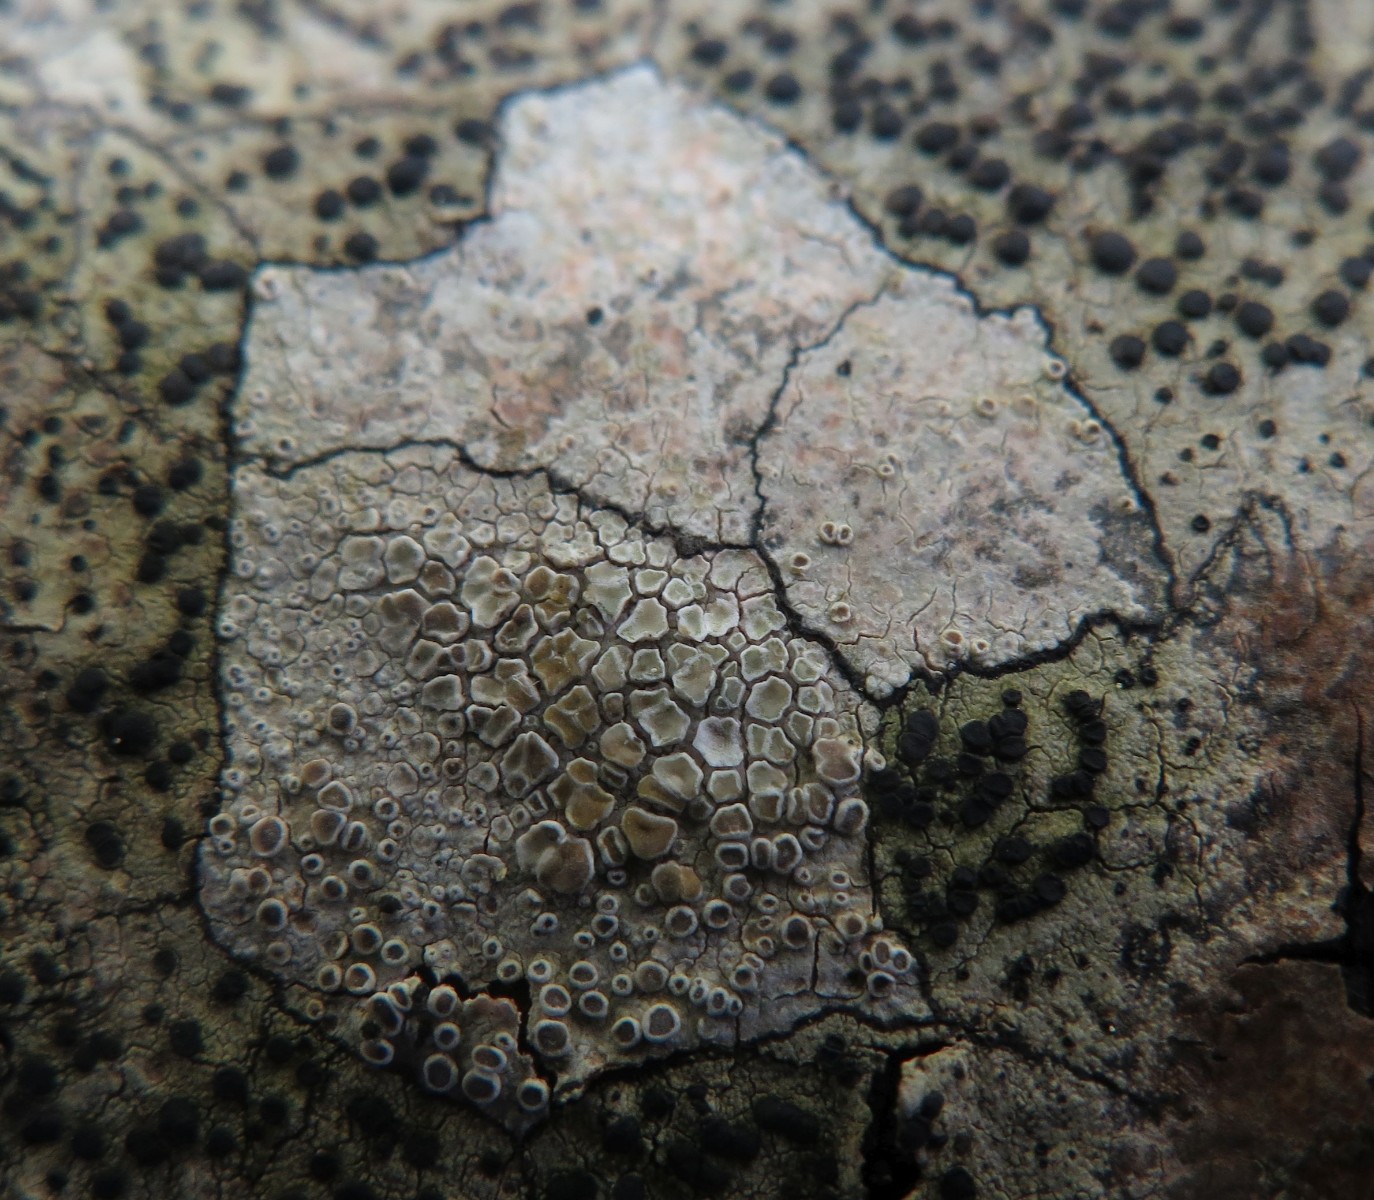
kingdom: Fungi
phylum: Ascomycota
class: Lecanoromycetes
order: Lecanorales
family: Lecanoraceae
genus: Lecanora
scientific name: Lecanora chlarotera
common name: brun kantskivelav
